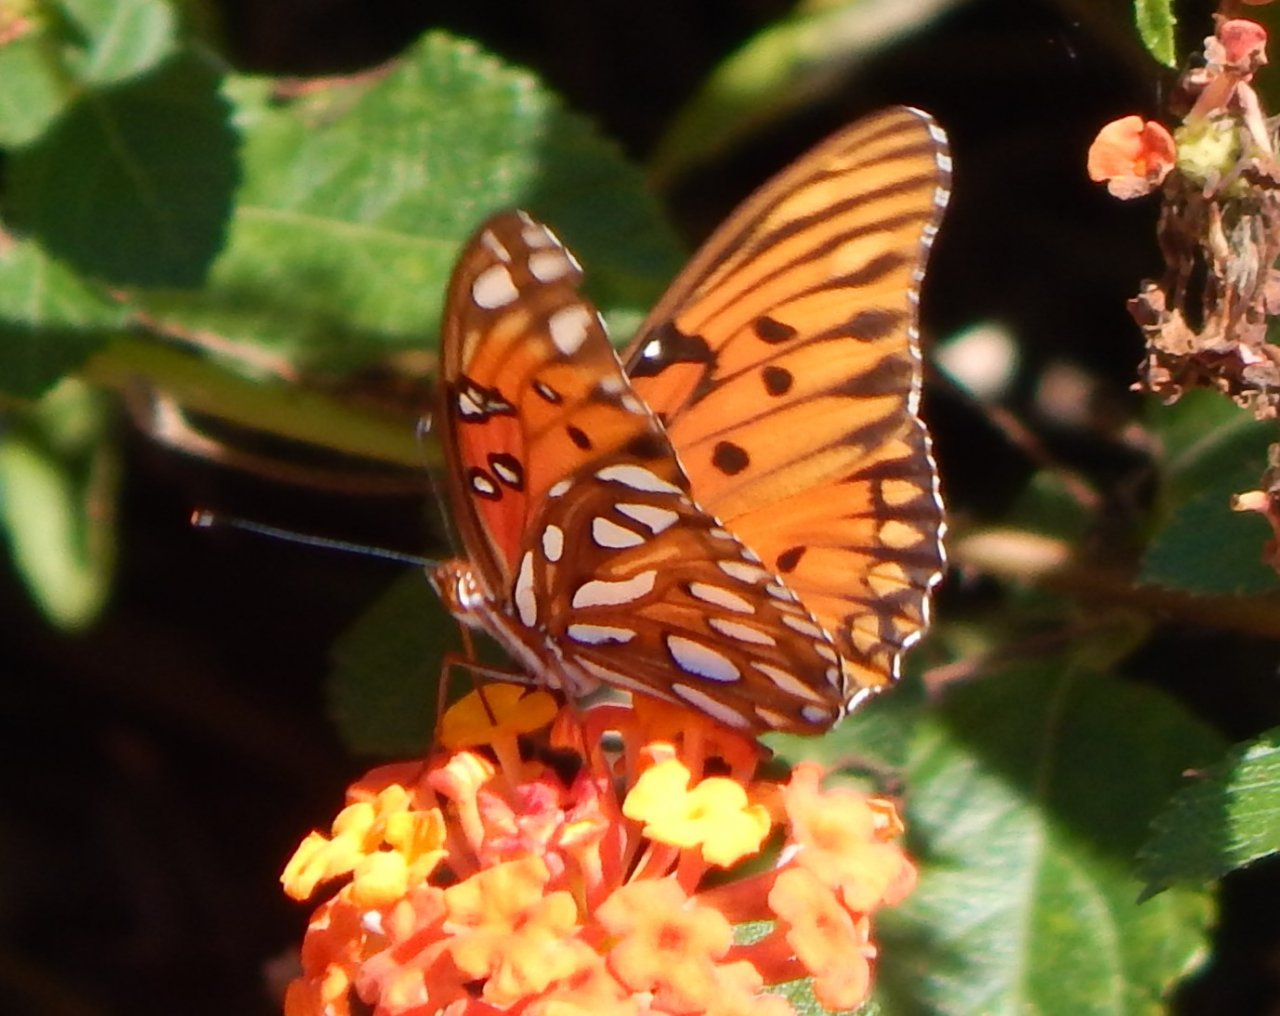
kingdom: Animalia
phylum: Arthropoda
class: Insecta
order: Lepidoptera
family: Nymphalidae
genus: Dione
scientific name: Dione vanillae
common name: Gulf Fritillary
